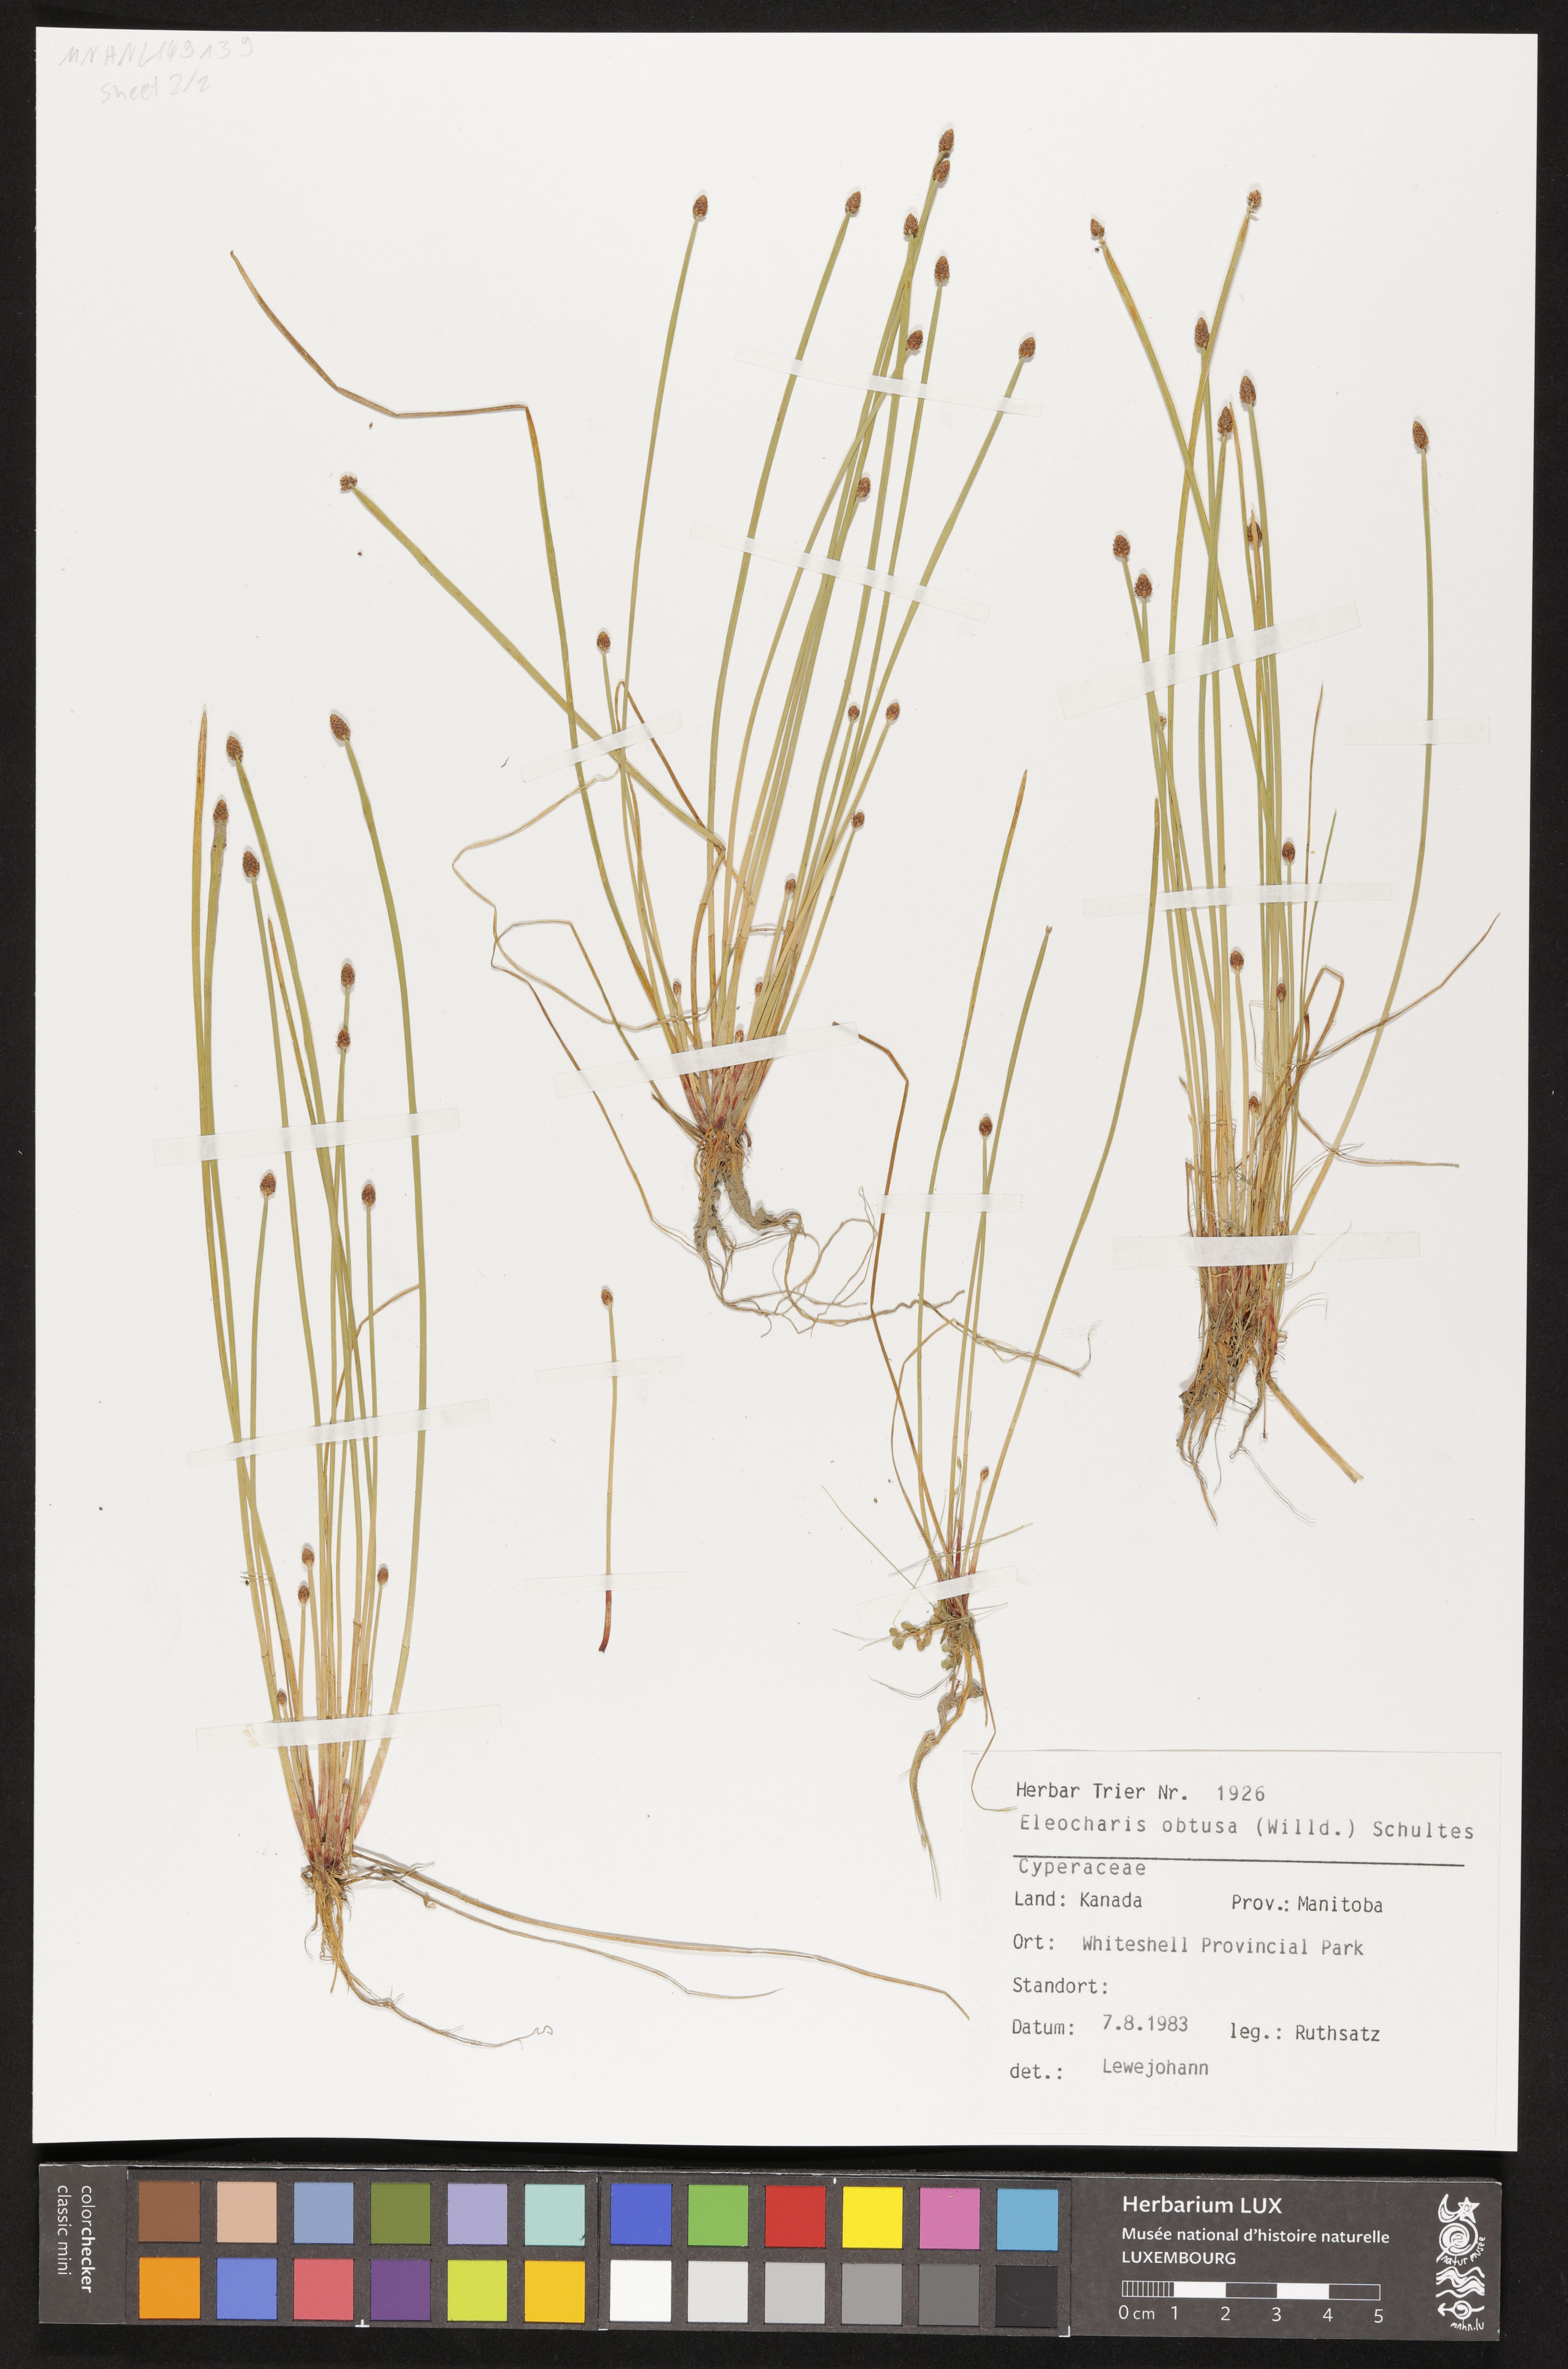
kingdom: Plantae
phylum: Tracheophyta
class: Liliopsida
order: Poales
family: Cyperaceae
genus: Eleocharis
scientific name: Eleocharis obtusa
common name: Blunt spikerush
